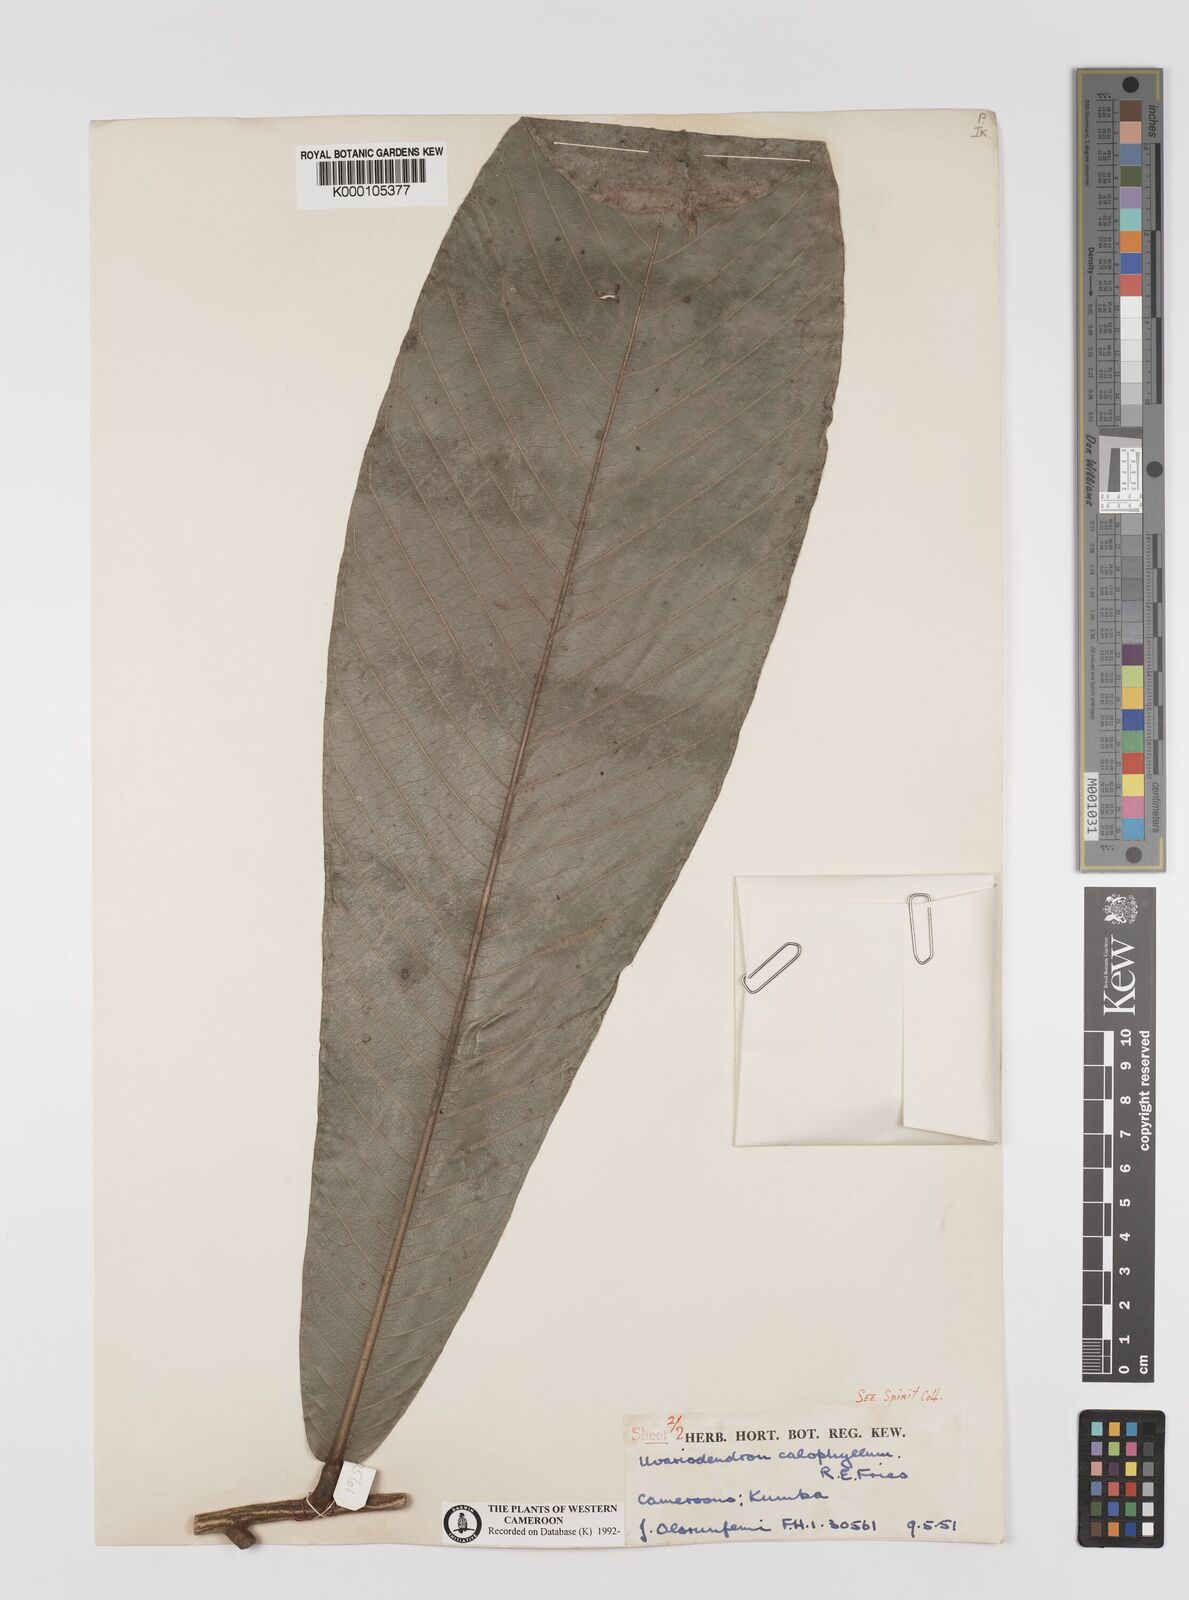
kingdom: Plantae
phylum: Tracheophyta
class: Magnoliopsida
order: Magnoliales
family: Annonaceae
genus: Uvariodendron
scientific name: Uvariodendron calophyllum
